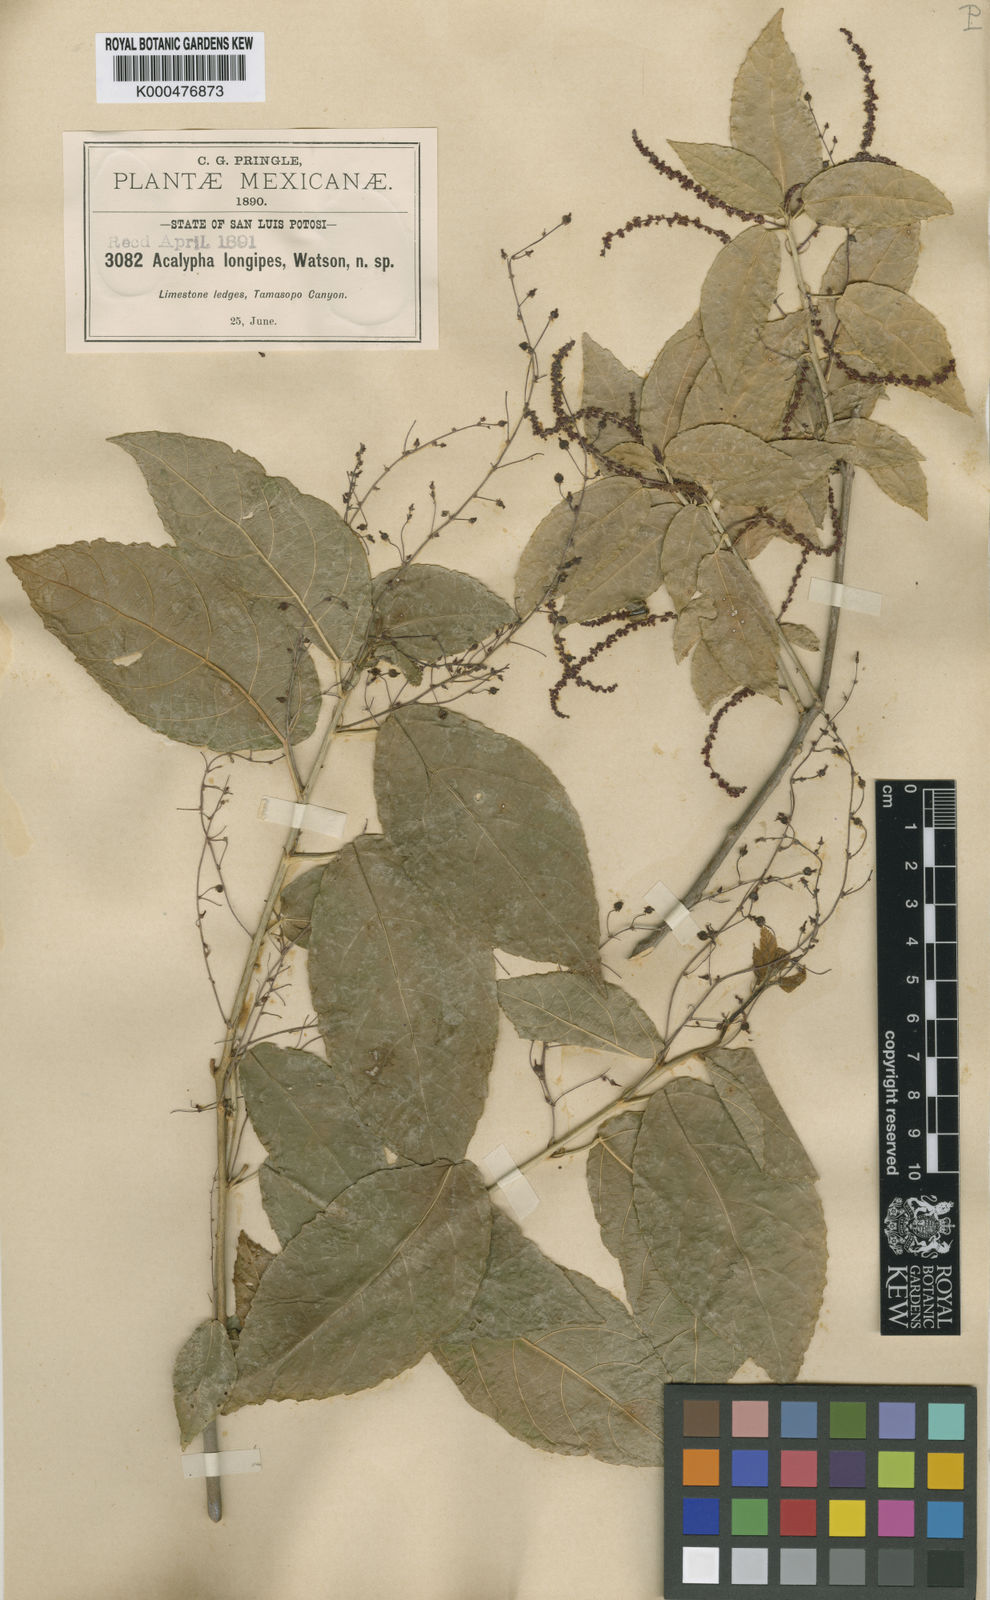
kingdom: Plantae
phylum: Tracheophyta
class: Magnoliopsida
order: Malpighiales
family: Euphorbiaceae
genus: Acalypha
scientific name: Acalypha longipes
